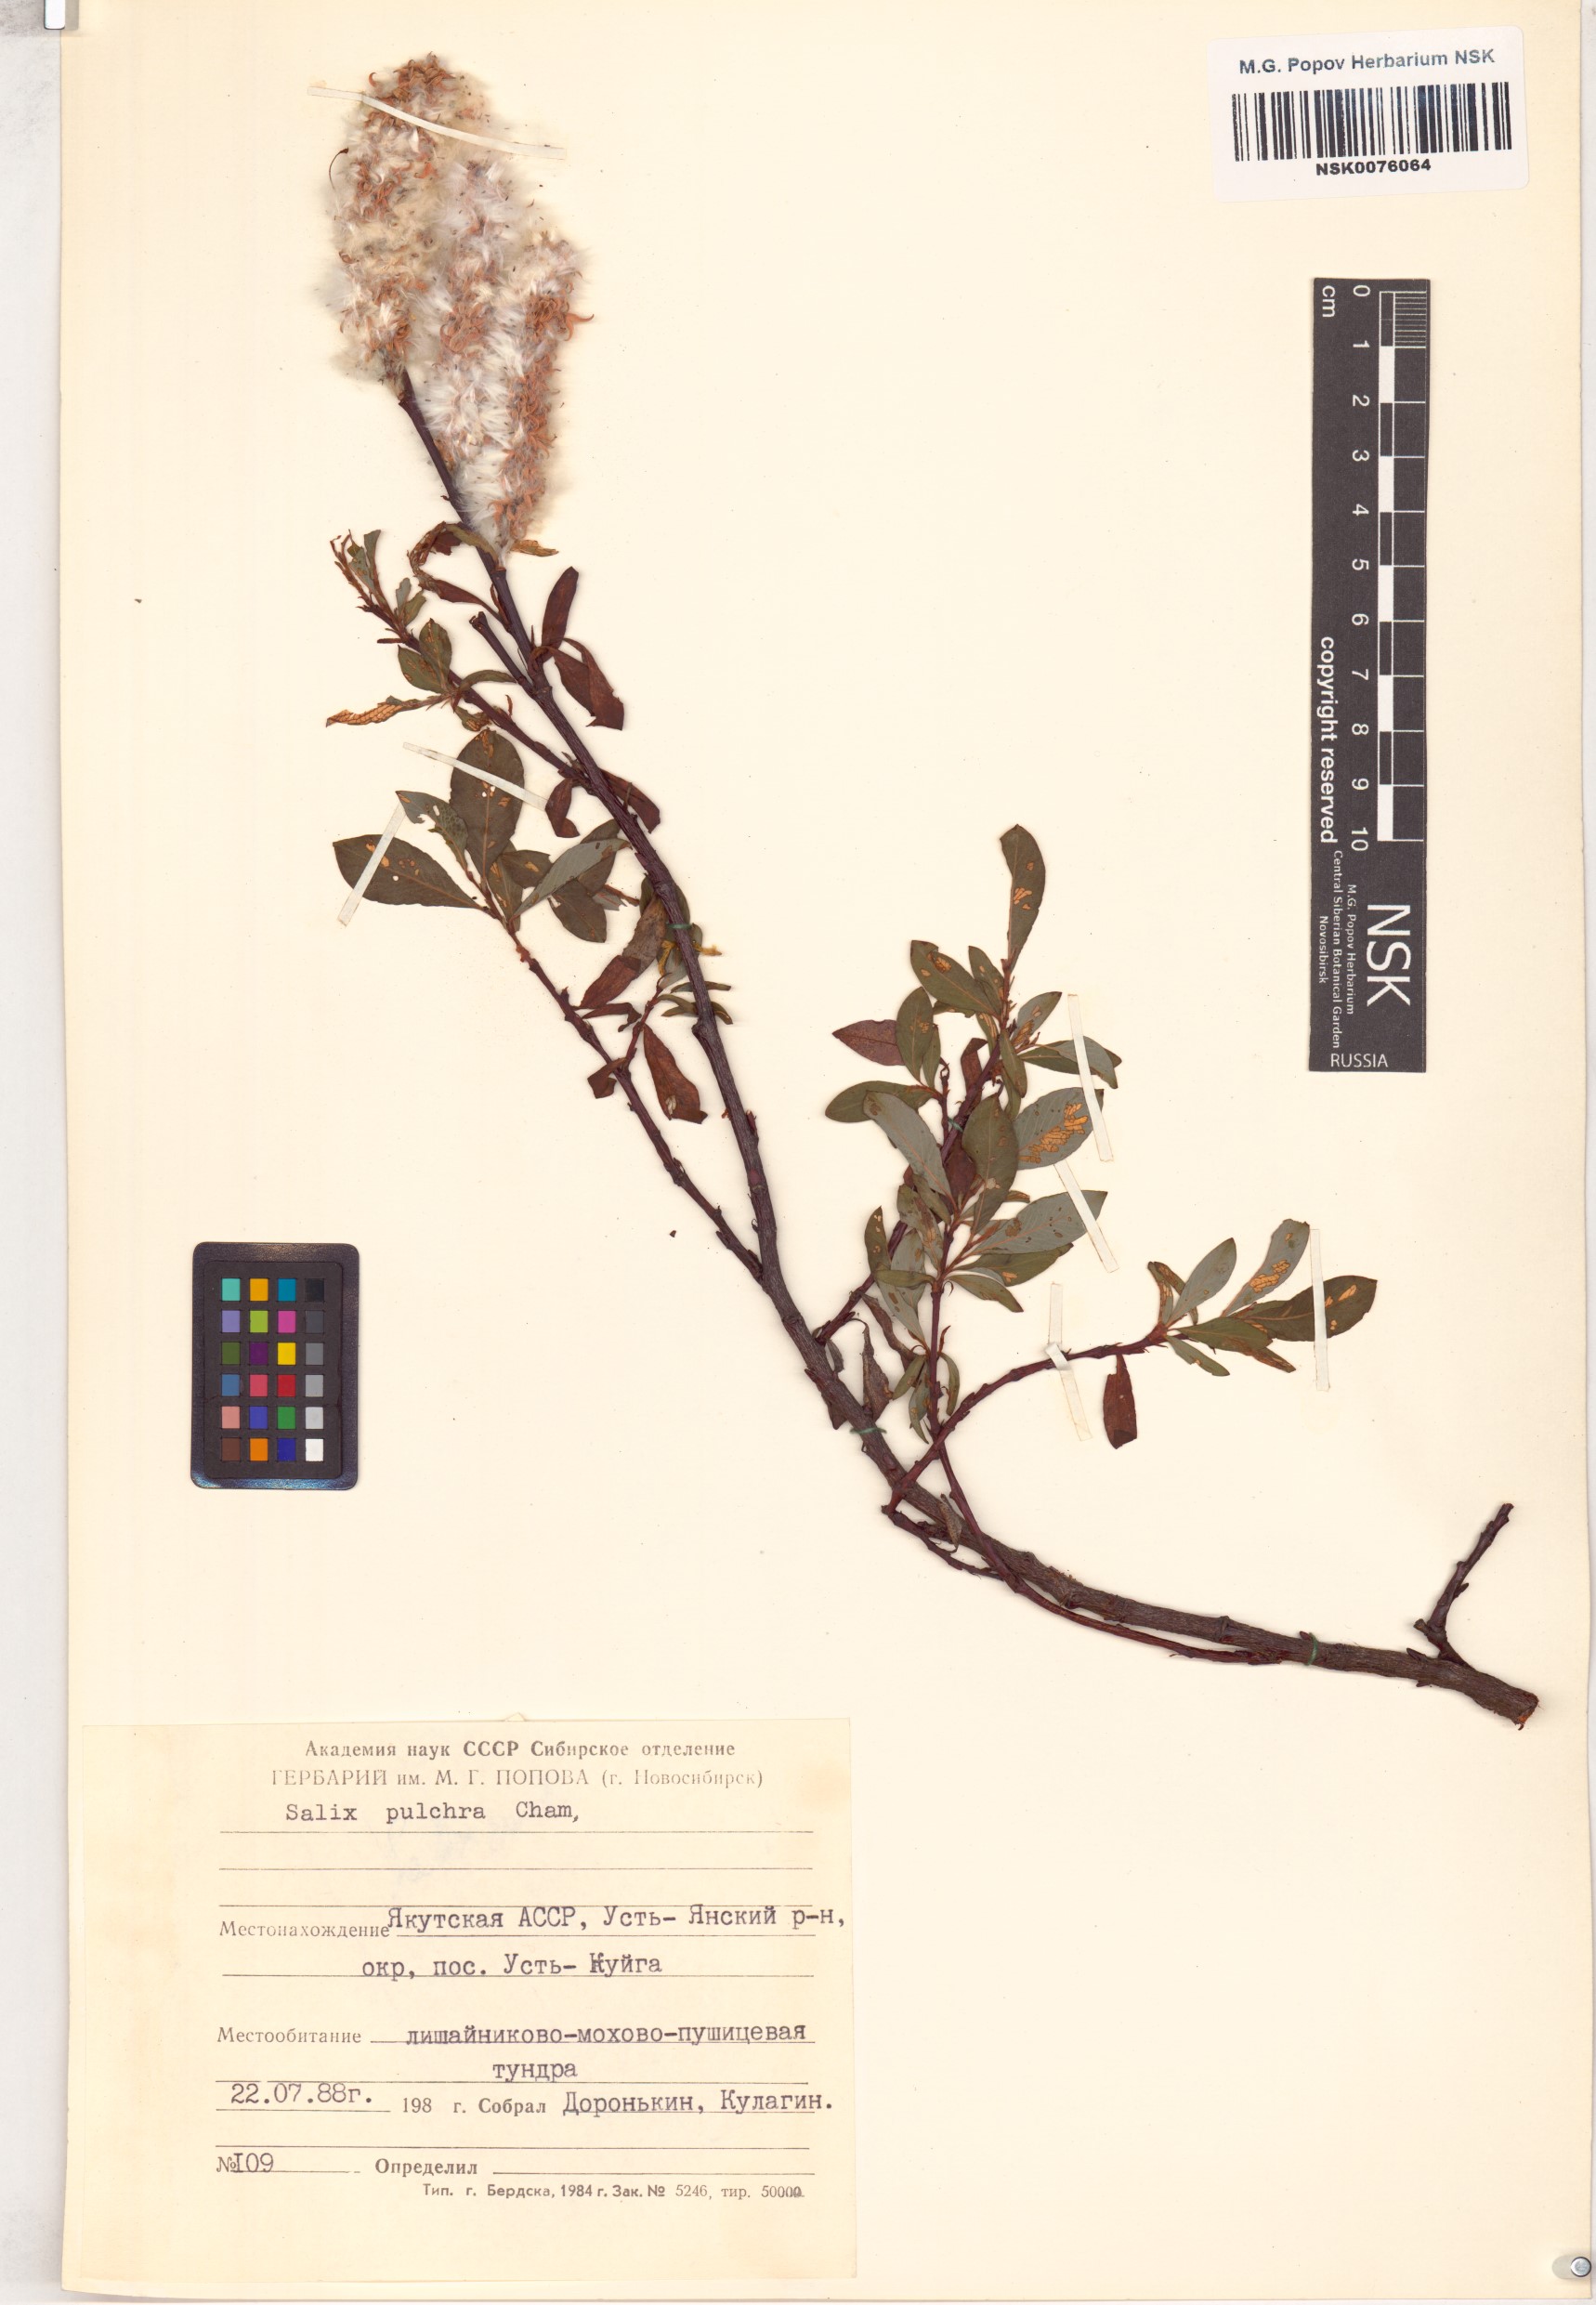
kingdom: Plantae
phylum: Tracheophyta
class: Magnoliopsida
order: Malpighiales
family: Salicaceae
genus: Salix
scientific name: Salix pulchra
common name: Diamond-leaved willow
